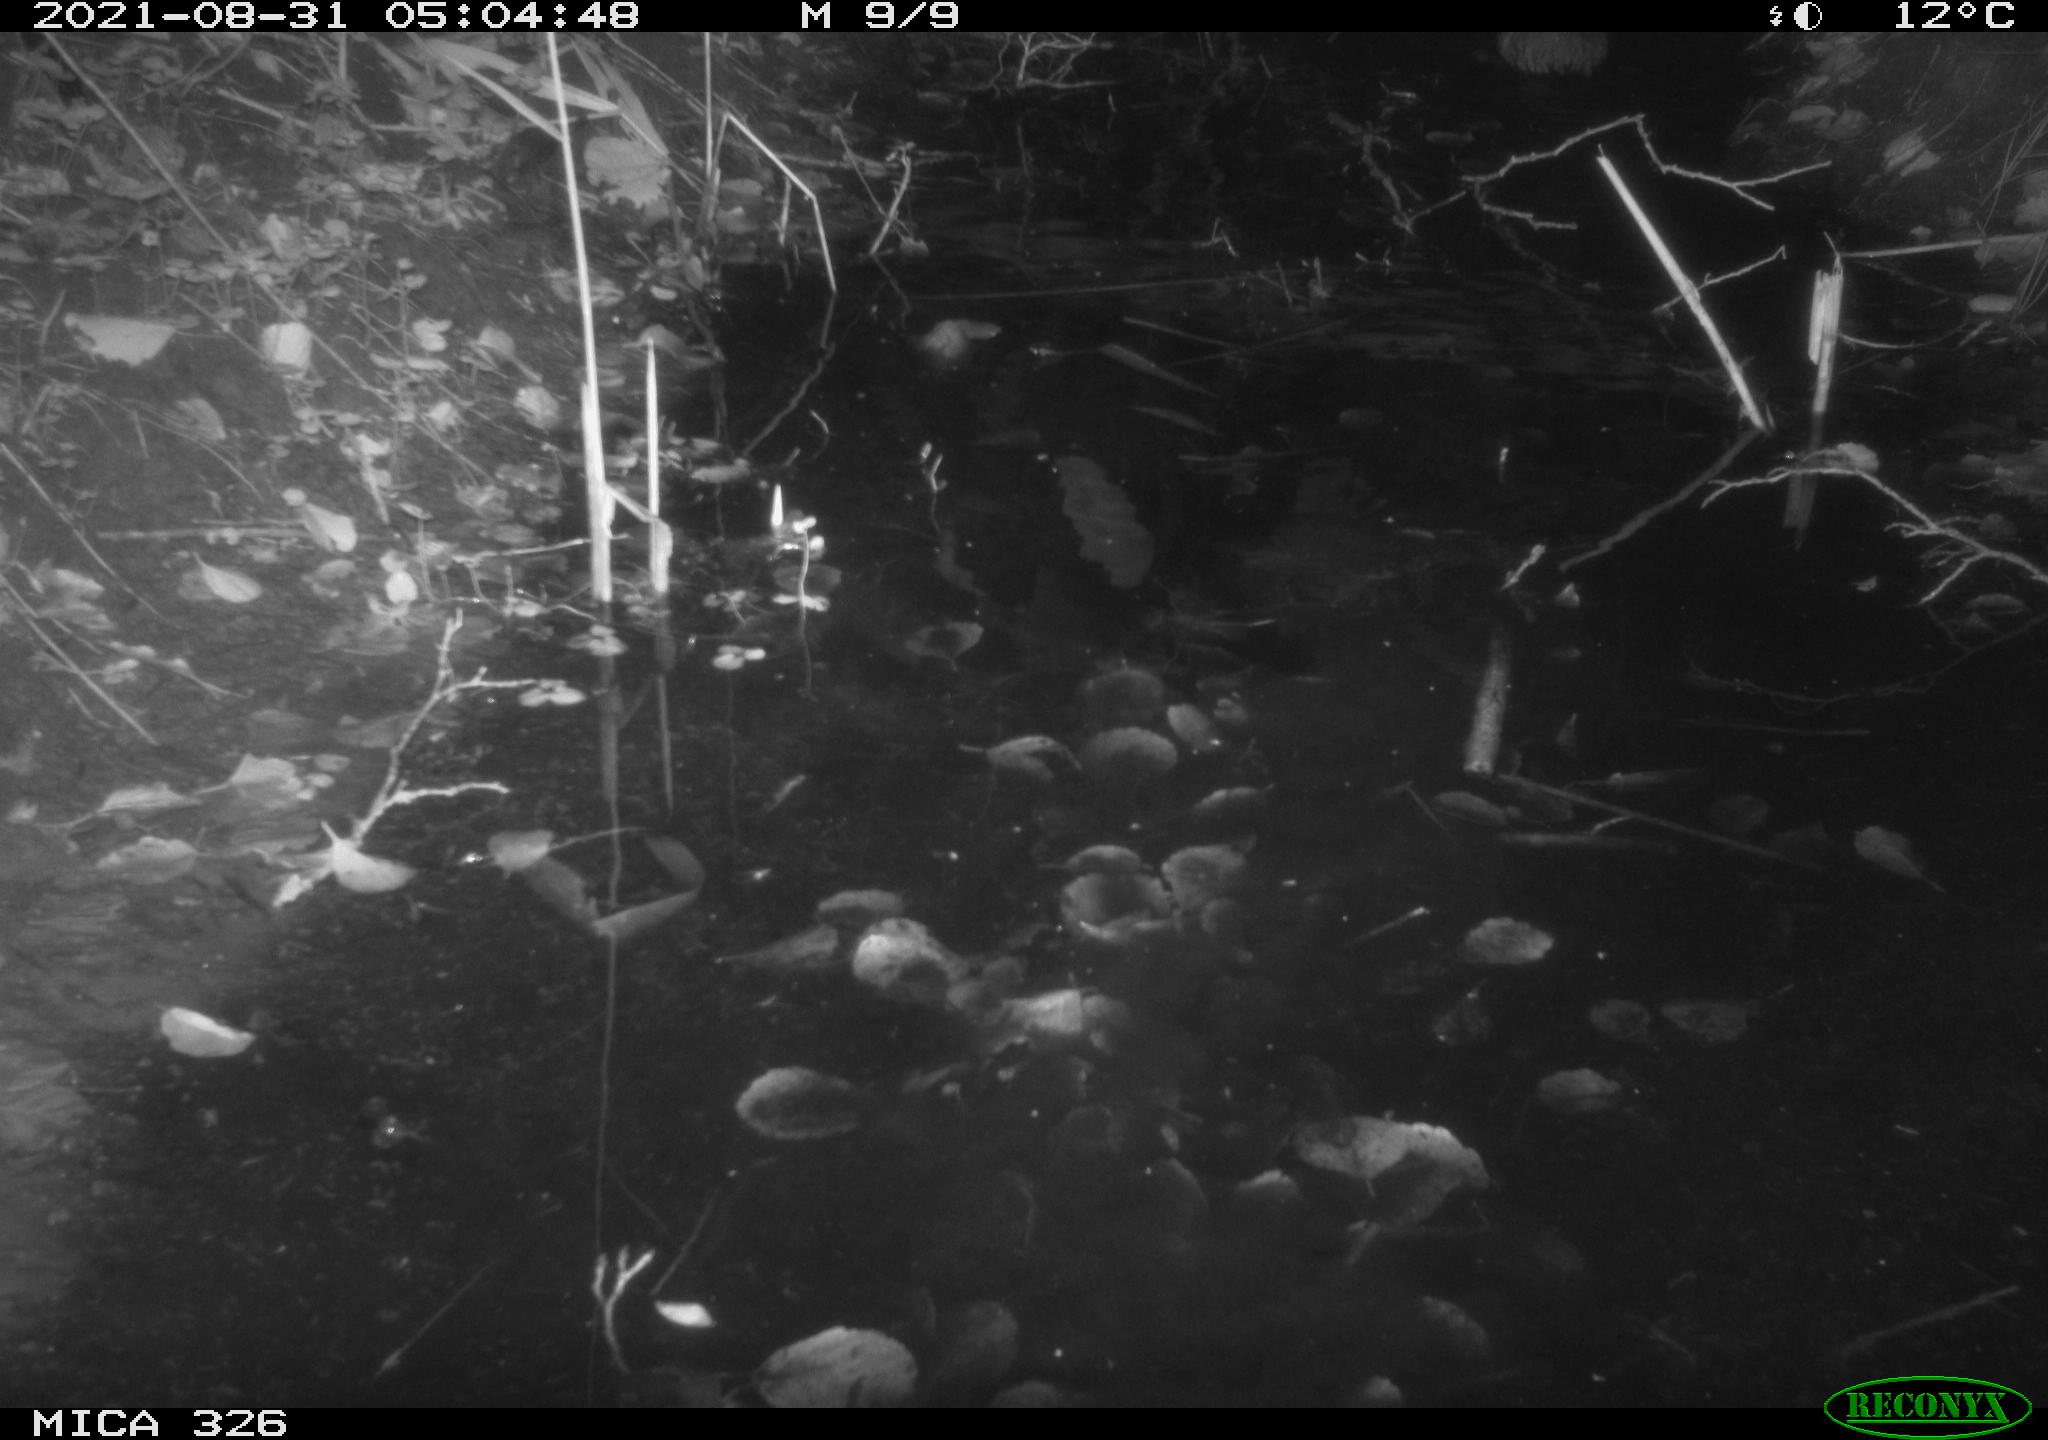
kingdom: Animalia
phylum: Chordata
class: Mammalia
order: Rodentia
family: Cricetidae
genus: Ondatra
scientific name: Ondatra zibethicus
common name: Muskrat
